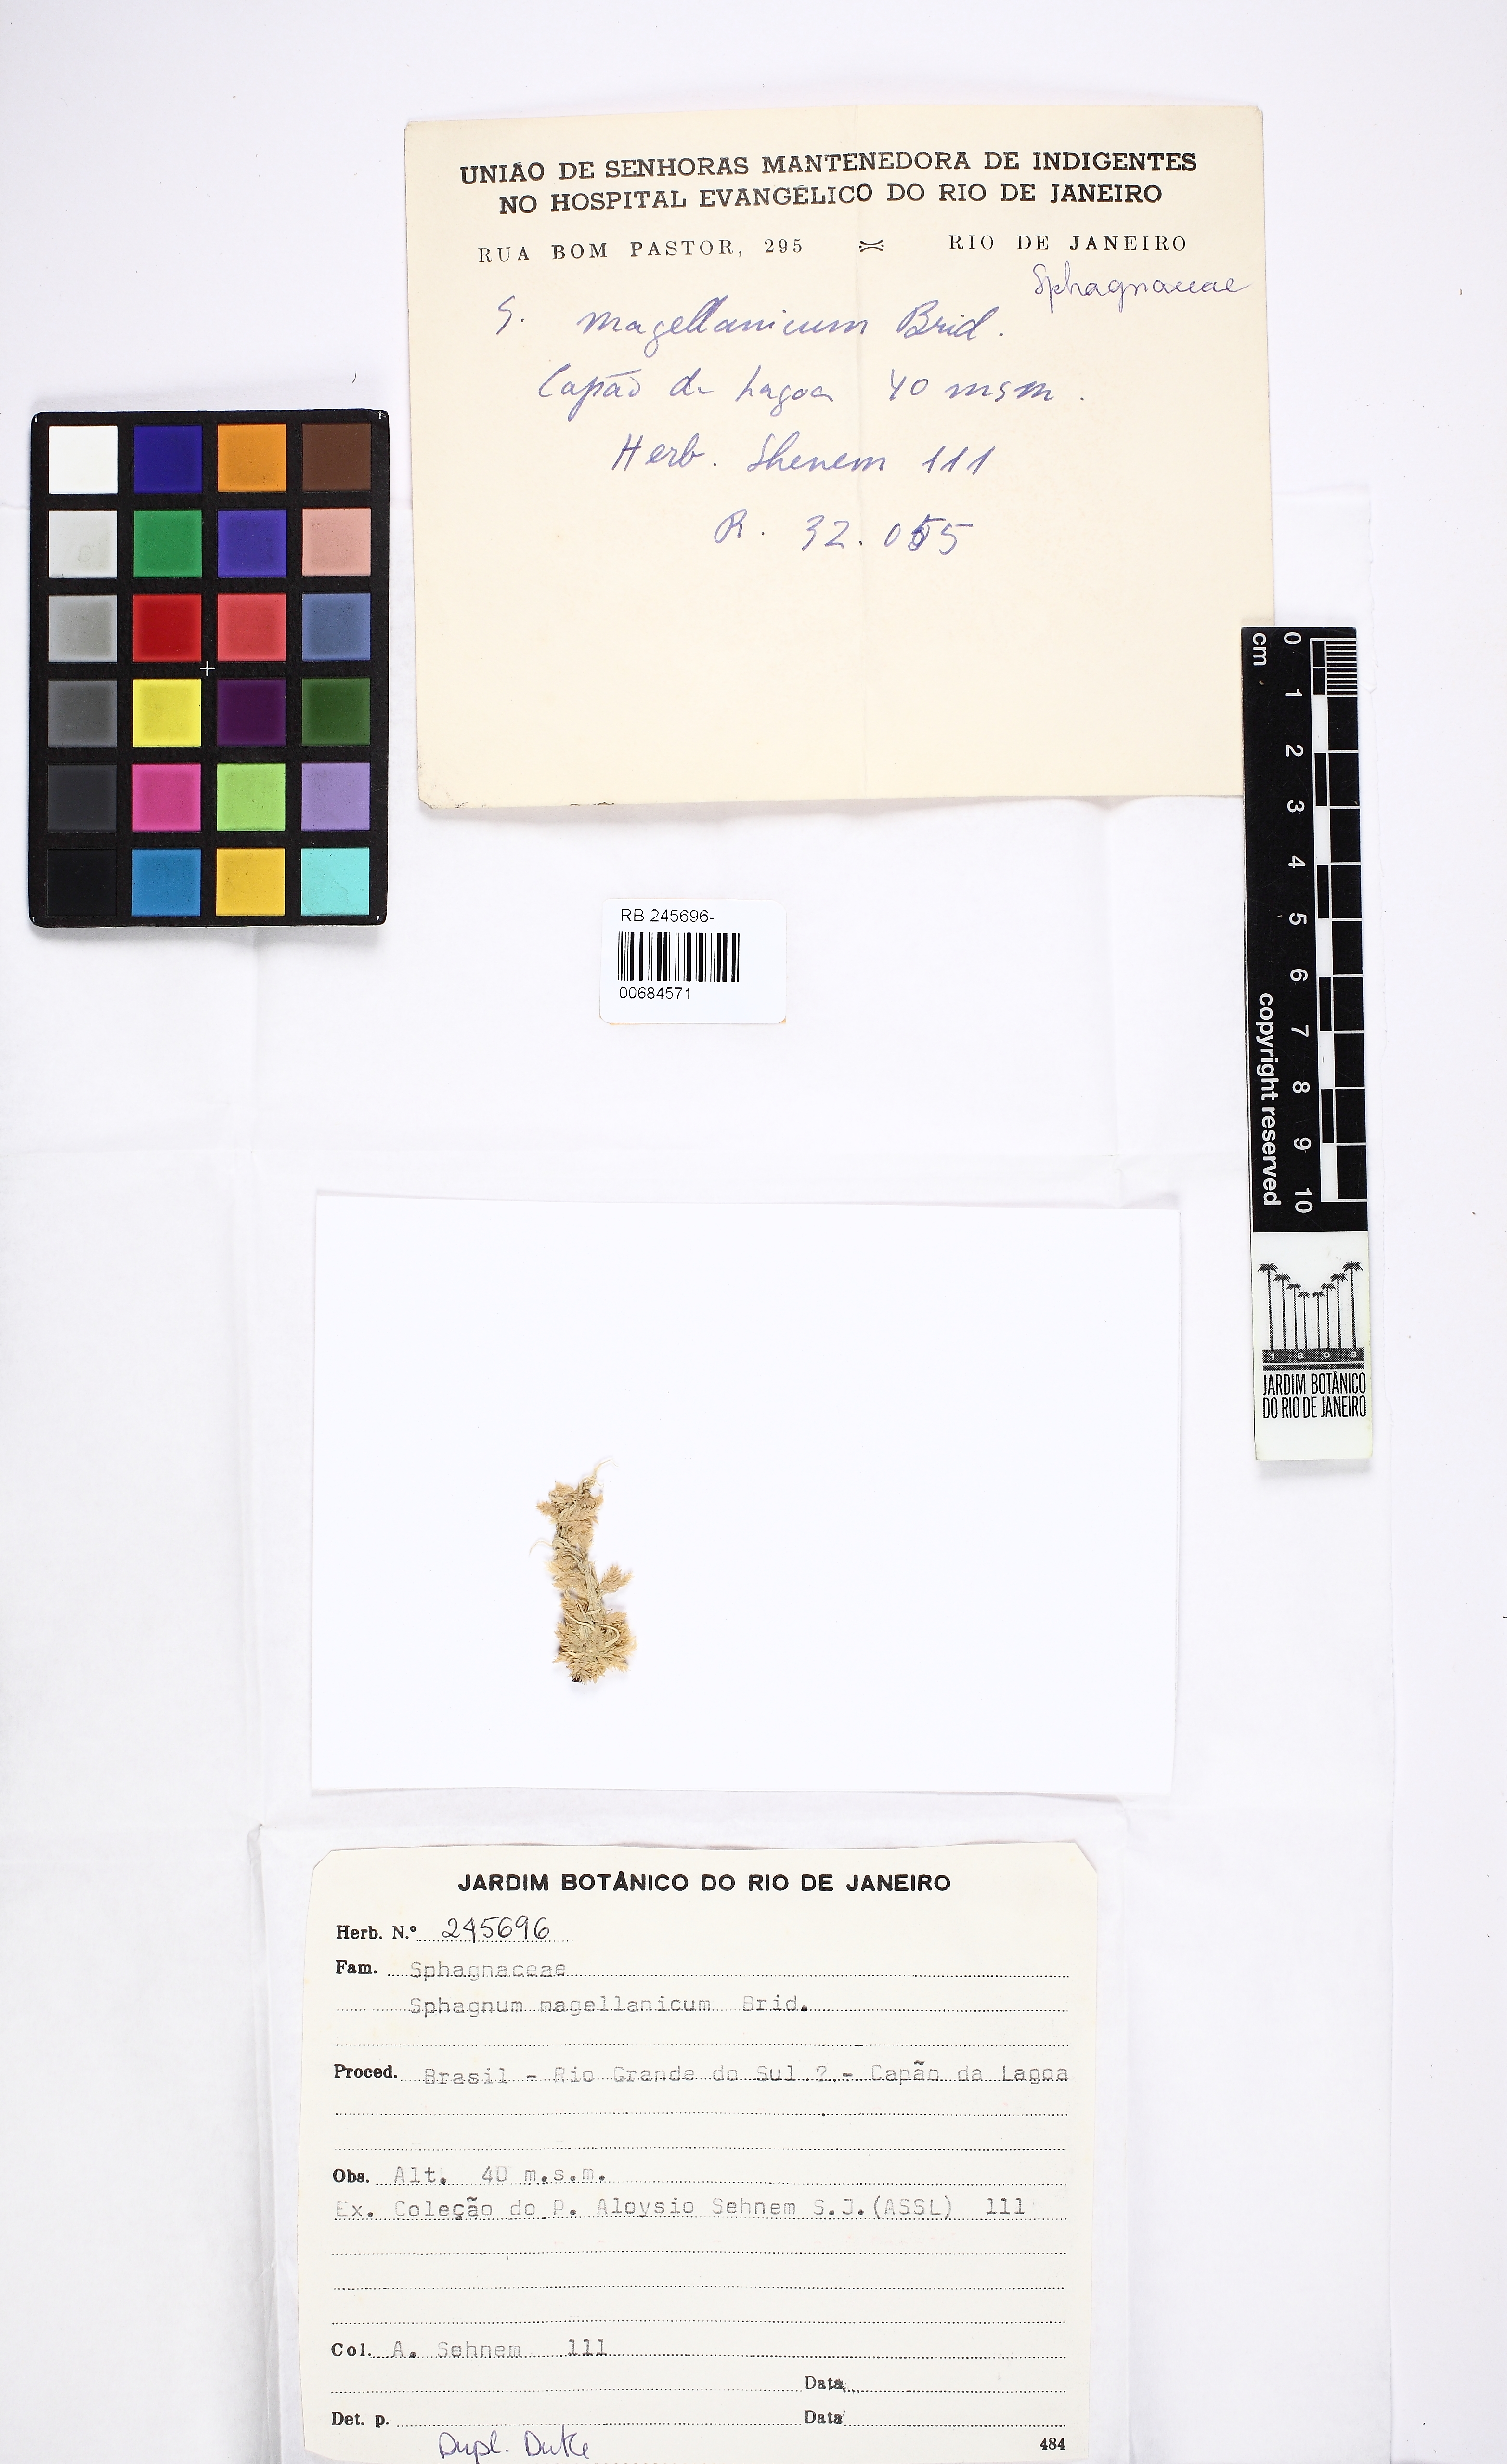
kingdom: Plantae
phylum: Bryophyta
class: Sphagnopsida
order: Sphagnales
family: Sphagnaceae
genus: Sphagnum
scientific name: Sphagnum magellanicum
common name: Magellan's peat moss
